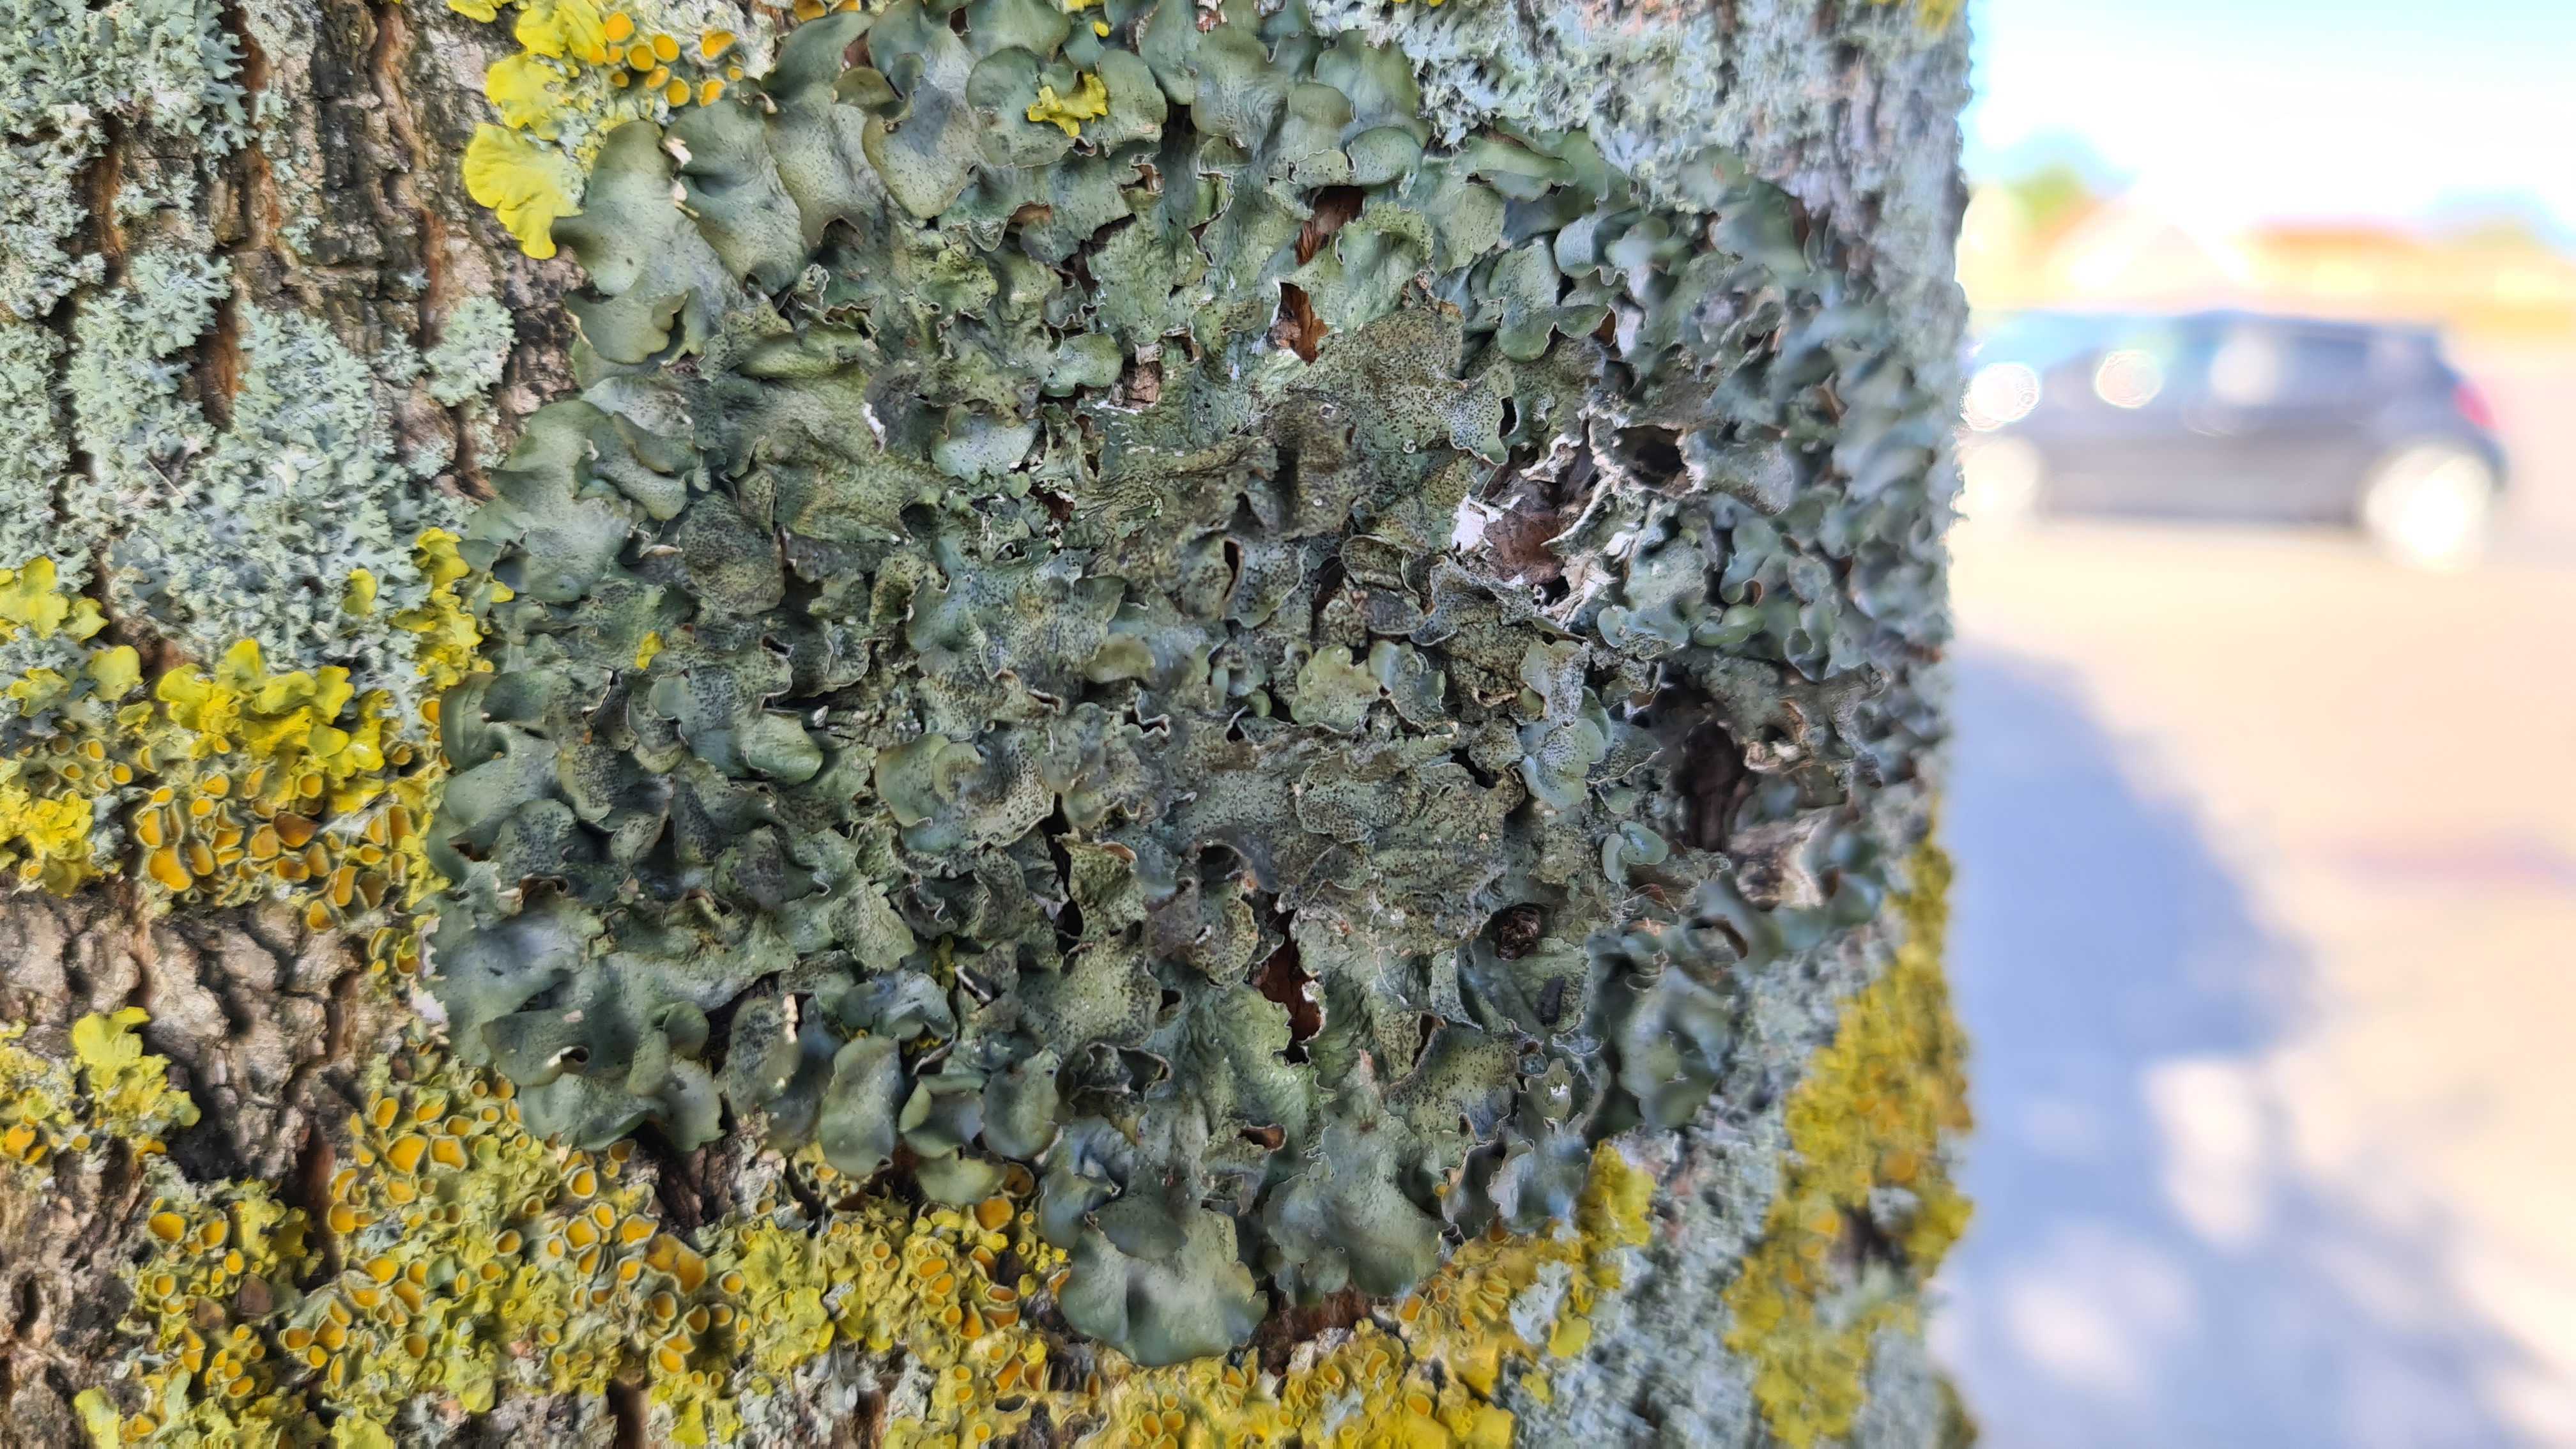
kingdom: Fungi
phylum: Ascomycota
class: Lecanoromycetes
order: Lecanorales
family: Parmeliaceae
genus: Pleurosticta
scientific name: Pleurosticta acetabulum
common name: stor skållav
